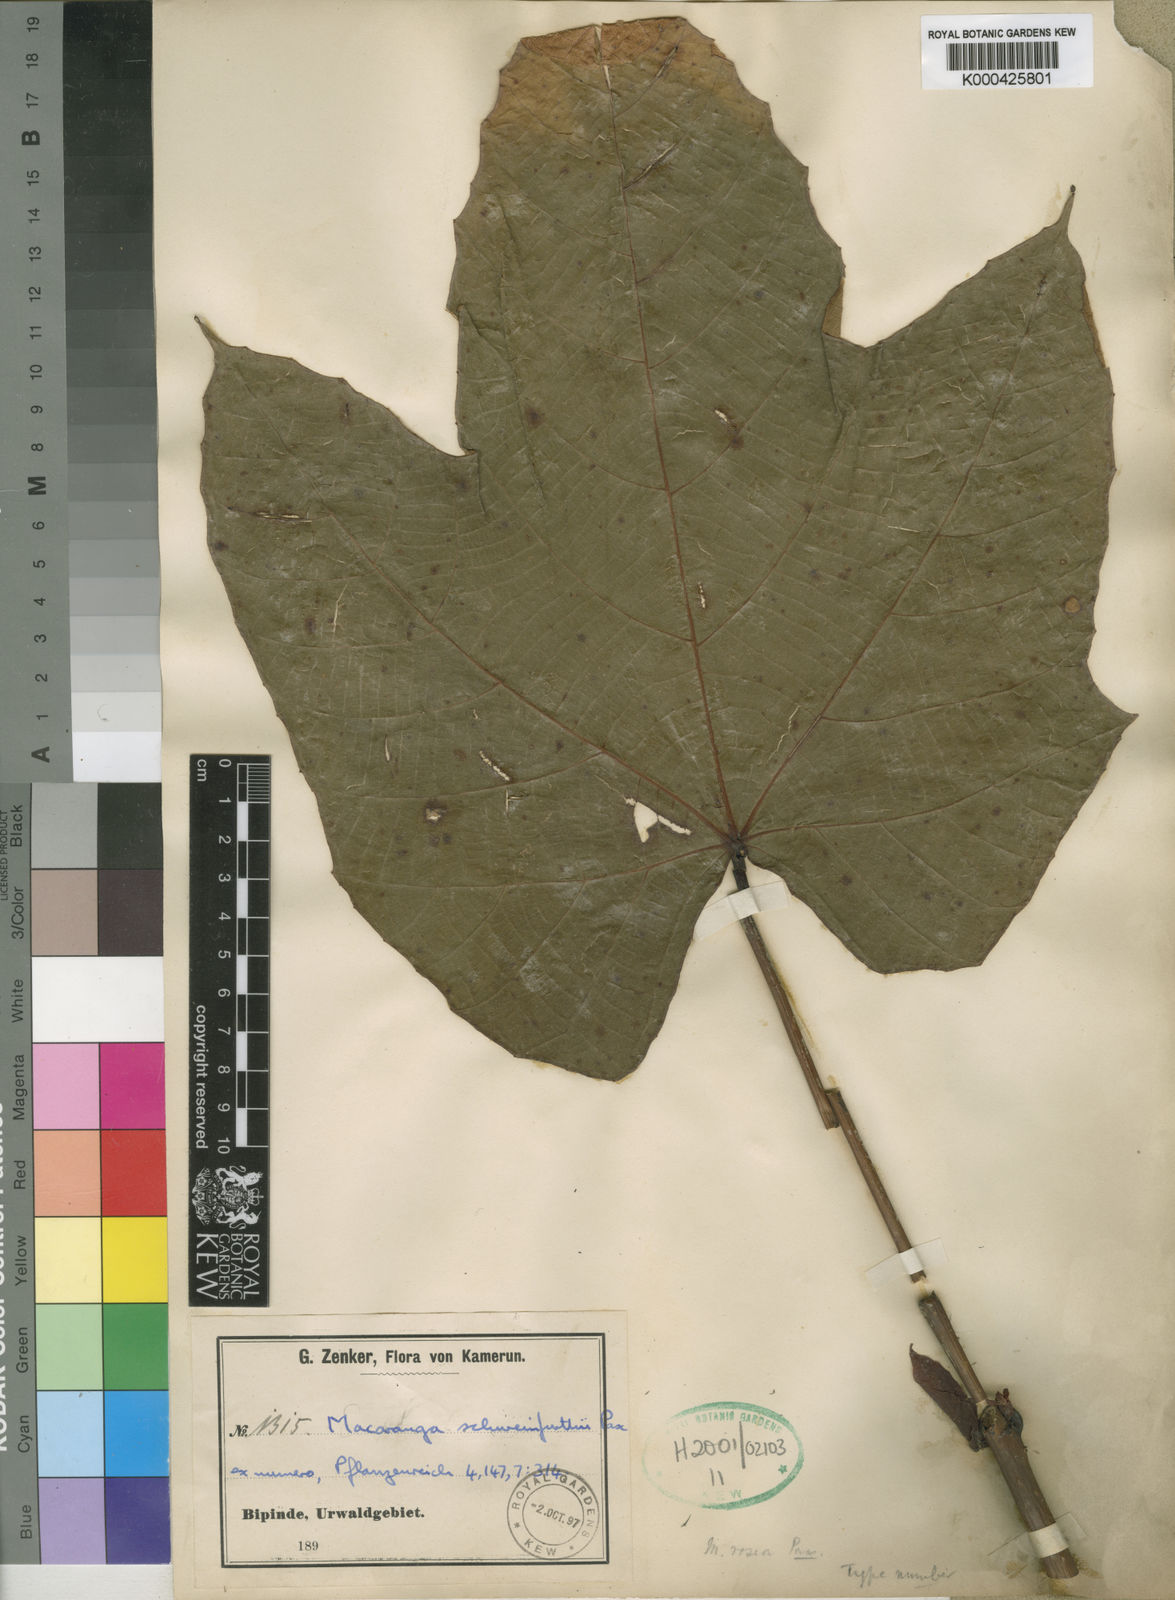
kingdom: Plantae
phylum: Tracheophyta
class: Magnoliopsida
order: Malpighiales
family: Euphorbiaceae
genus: Macaranga
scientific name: Macaranga schweinfurthii
